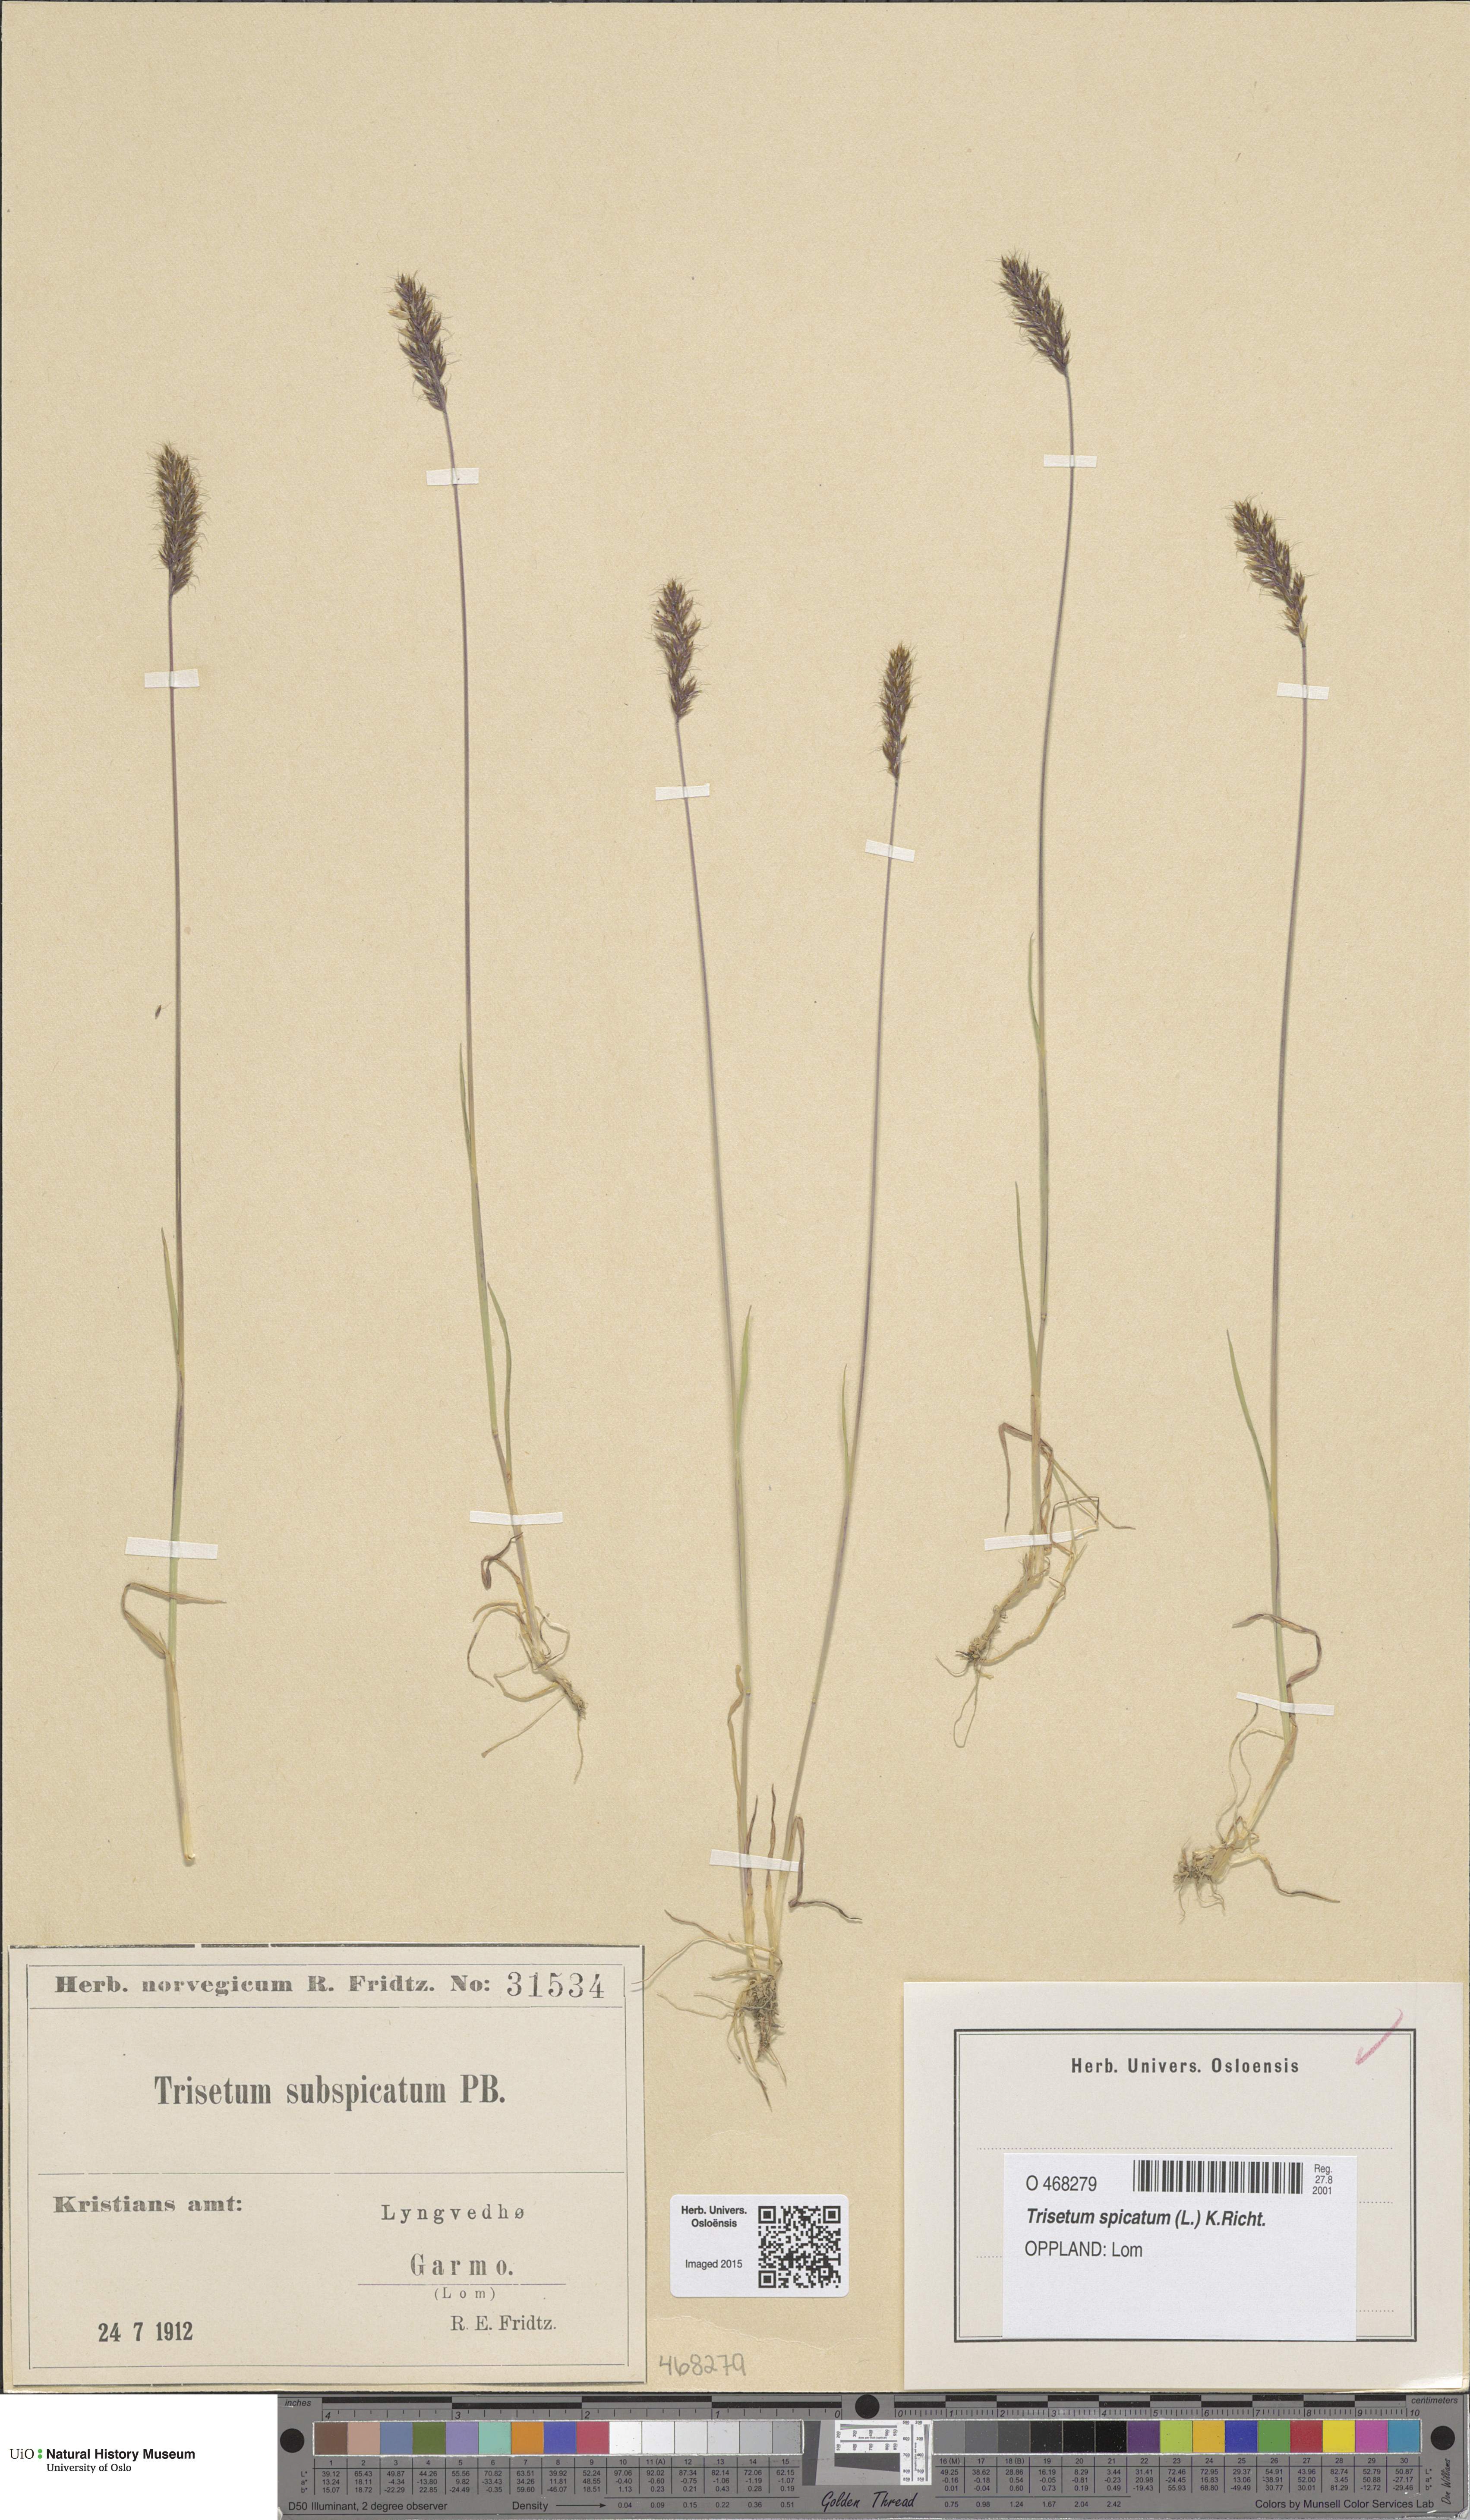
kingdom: Plantae
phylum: Tracheophyta
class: Liliopsida
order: Poales
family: Poaceae
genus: Koeleria
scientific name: Koeleria spicata
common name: Mountain trisetum
